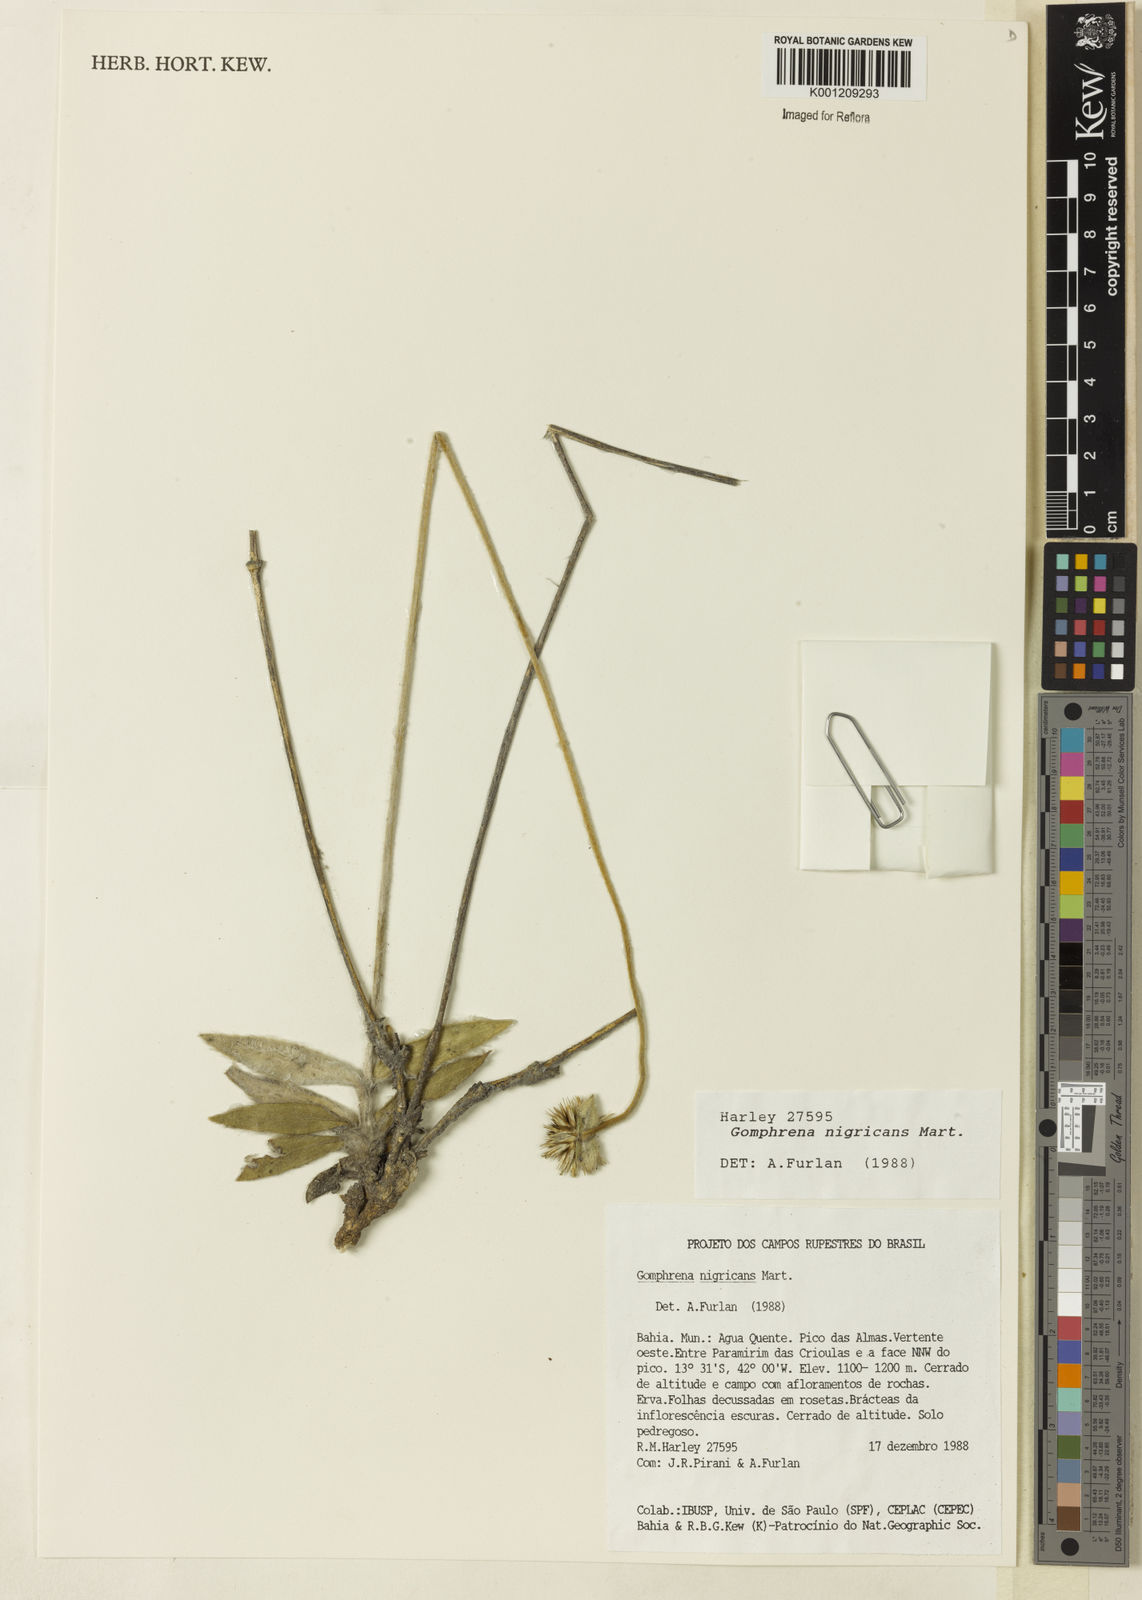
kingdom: Plantae
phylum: Tracheophyta
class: Magnoliopsida
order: Caryophyllales
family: Amaranthaceae
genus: Gomphrena
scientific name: Gomphrena nigricans
